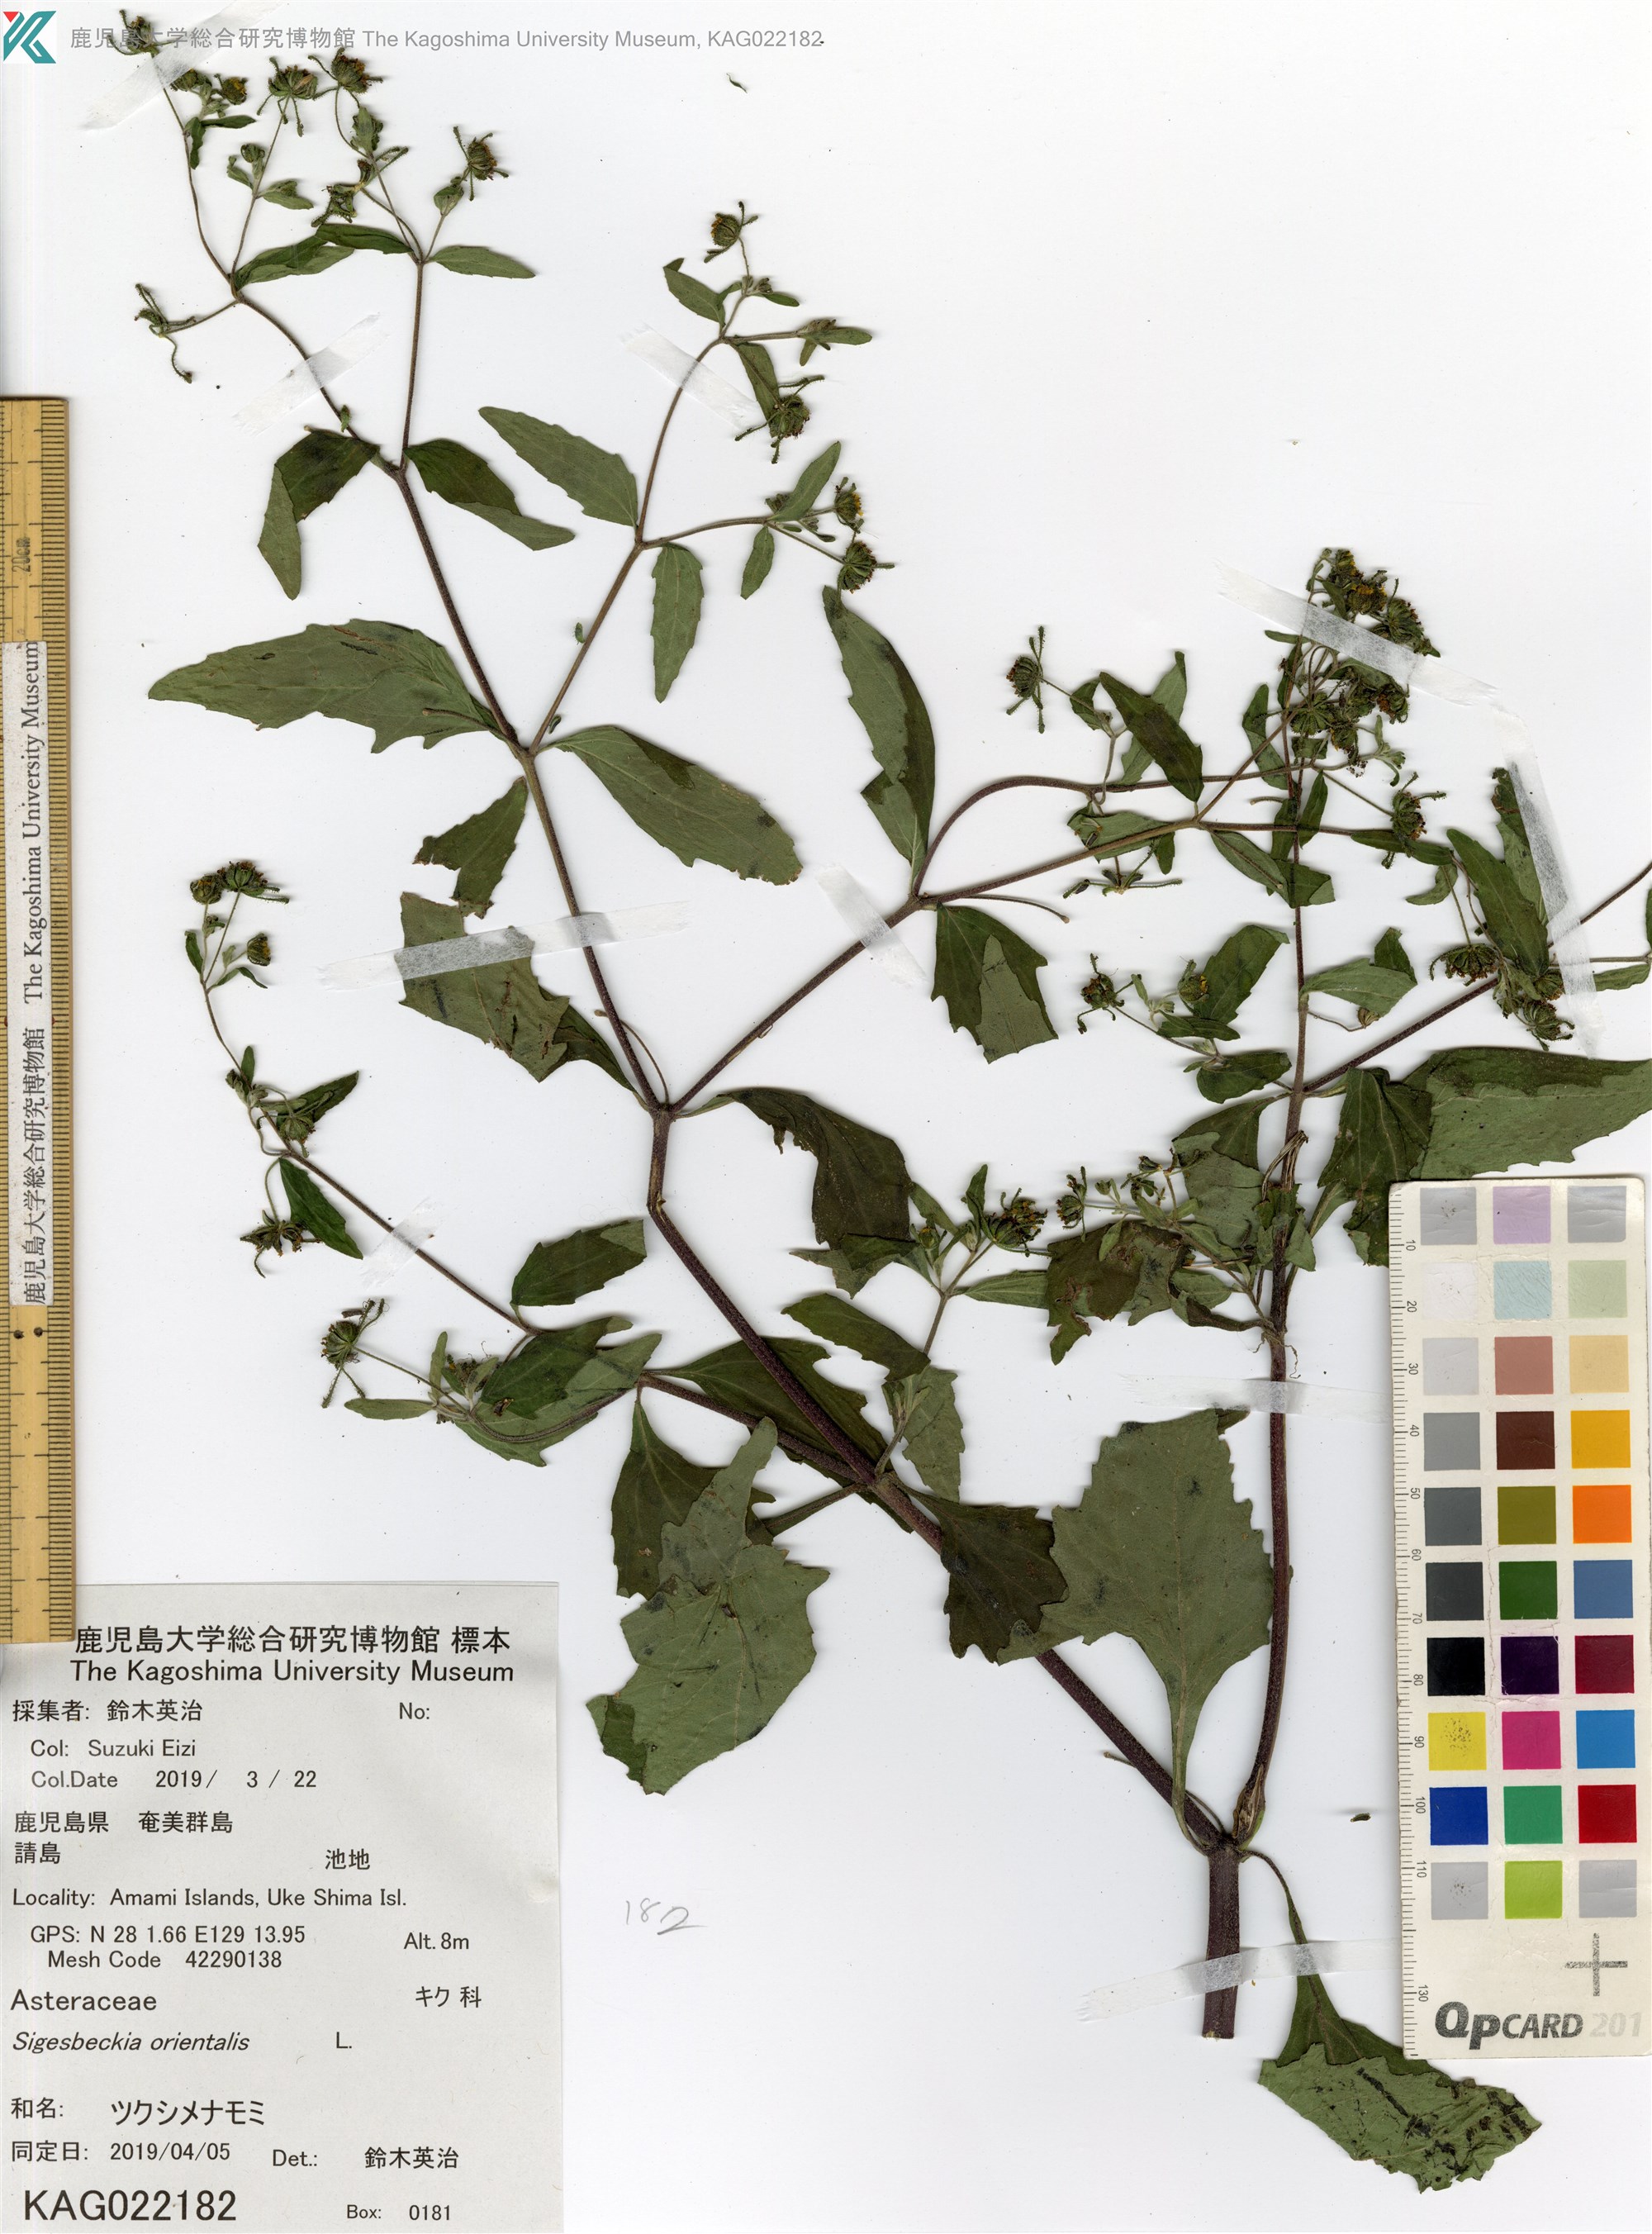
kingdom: Plantae
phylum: Tracheophyta
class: Magnoliopsida
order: Asterales
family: Asteraceae
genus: Sigesbeckia
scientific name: Sigesbeckia orientalis
